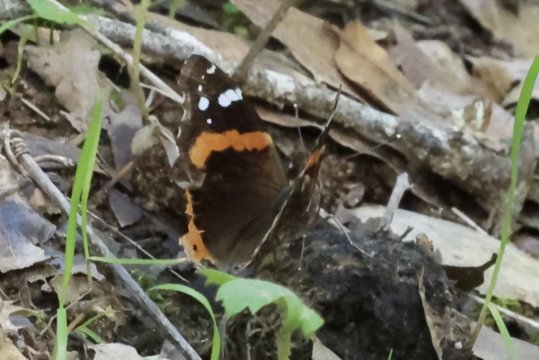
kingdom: Animalia
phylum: Arthropoda
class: Insecta
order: Lepidoptera
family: Nymphalidae
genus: Vanessa
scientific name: Vanessa atalanta
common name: Red Admiral
